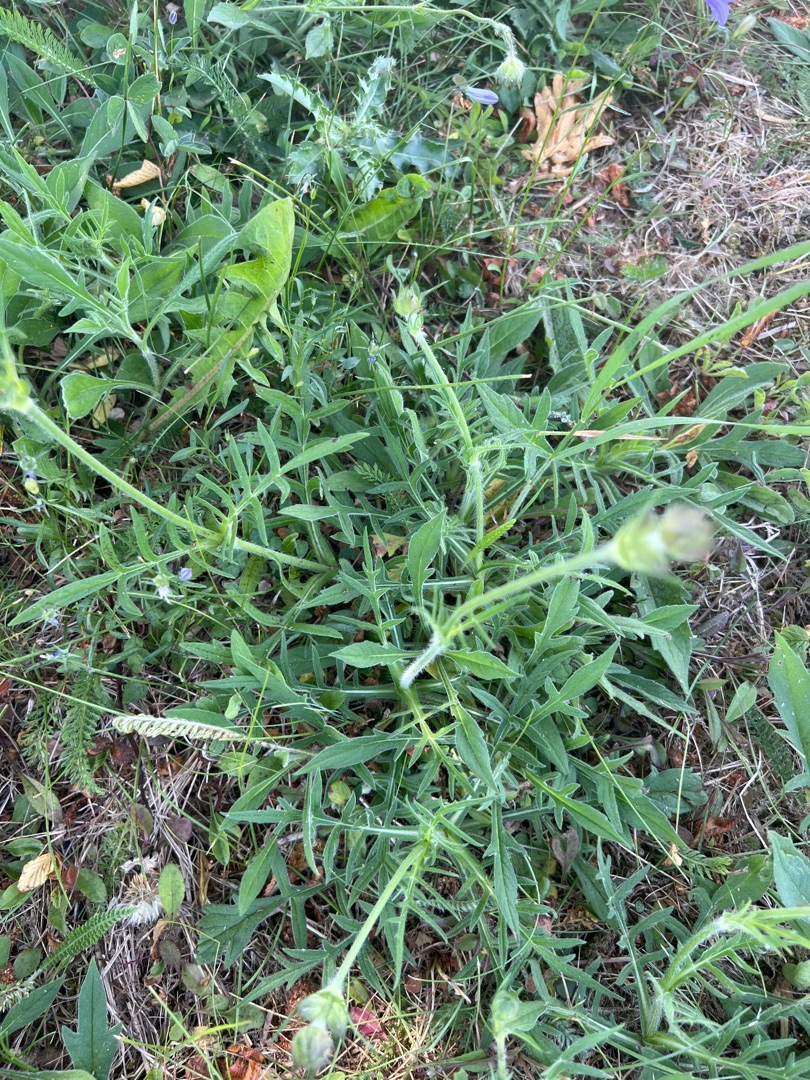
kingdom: Plantae
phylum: Tracheophyta
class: Magnoliopsida
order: Dipsacales
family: Caprifoliaceae
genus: Knautia
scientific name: Knautia arvensis
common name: Blåhat
